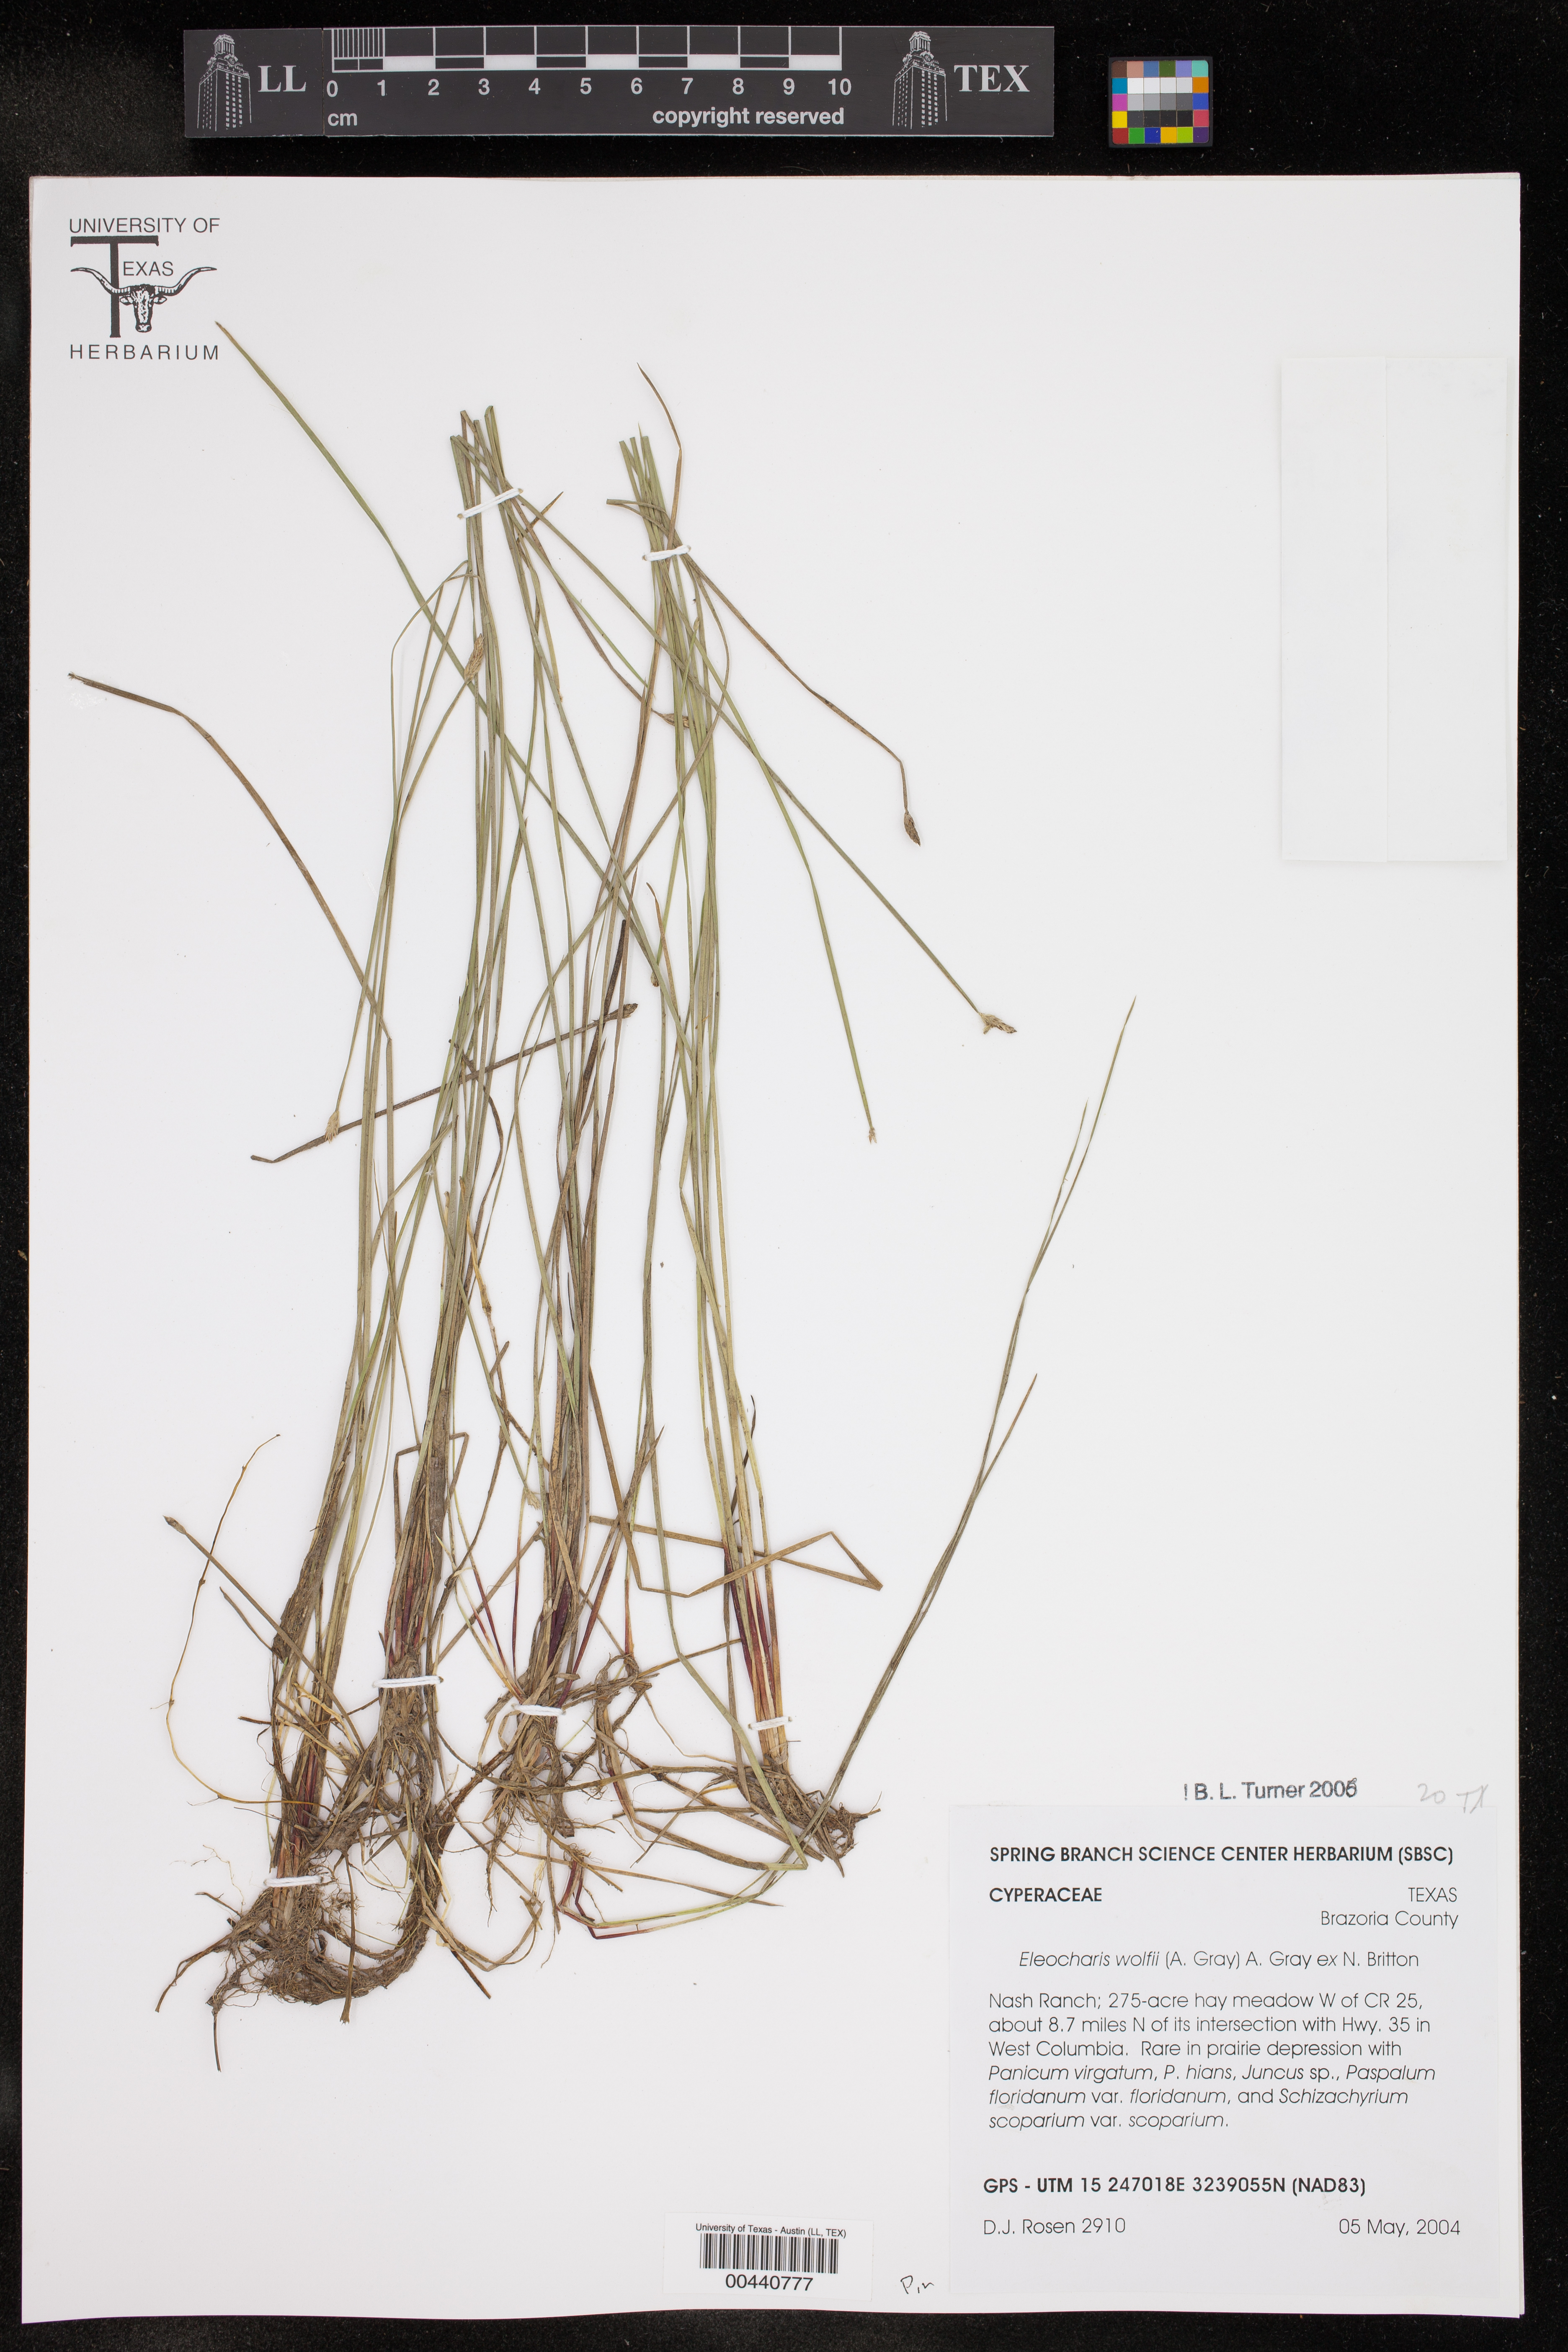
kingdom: Plantae
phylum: Tracheophyta
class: Liliopsida
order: Poales
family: Cyperaceae
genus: Eleocharis
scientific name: Eleocharis wolfii
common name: Wolf's spikerush
